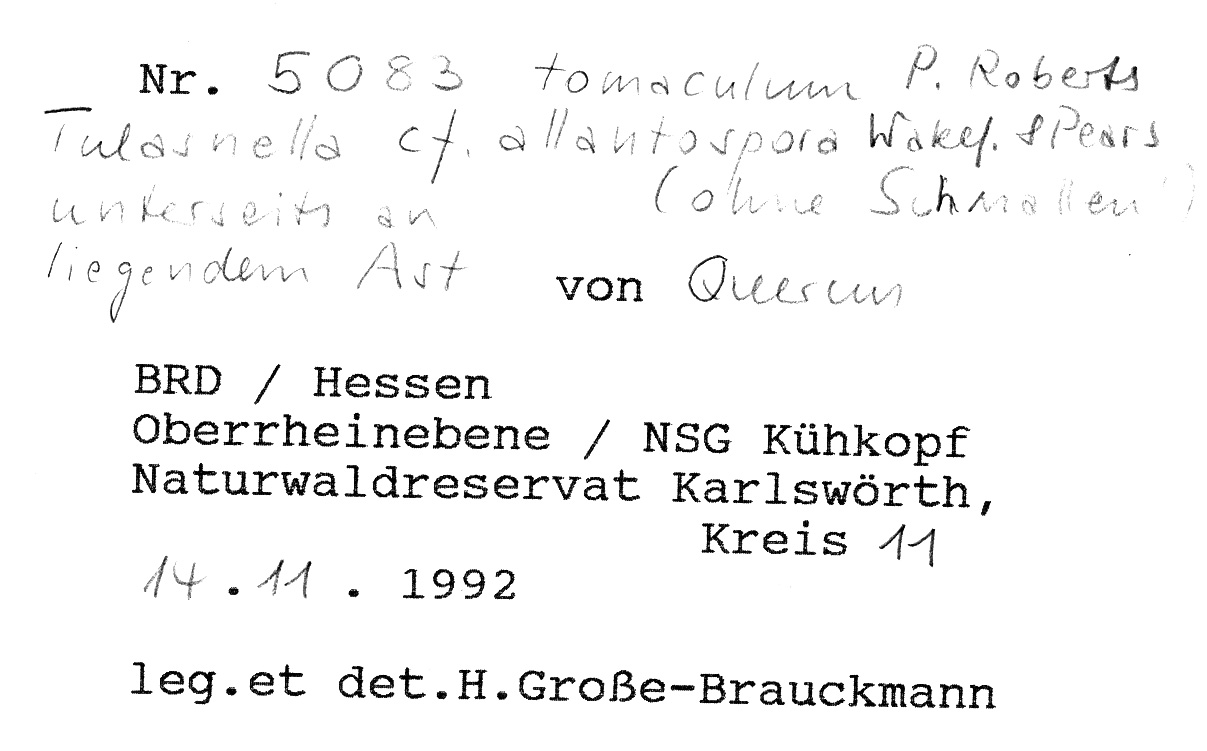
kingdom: Plantae
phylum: Tracheophyta
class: Magnoliopsida
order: Fagales
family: Fagaceae
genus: Quercus
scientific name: Quercus
